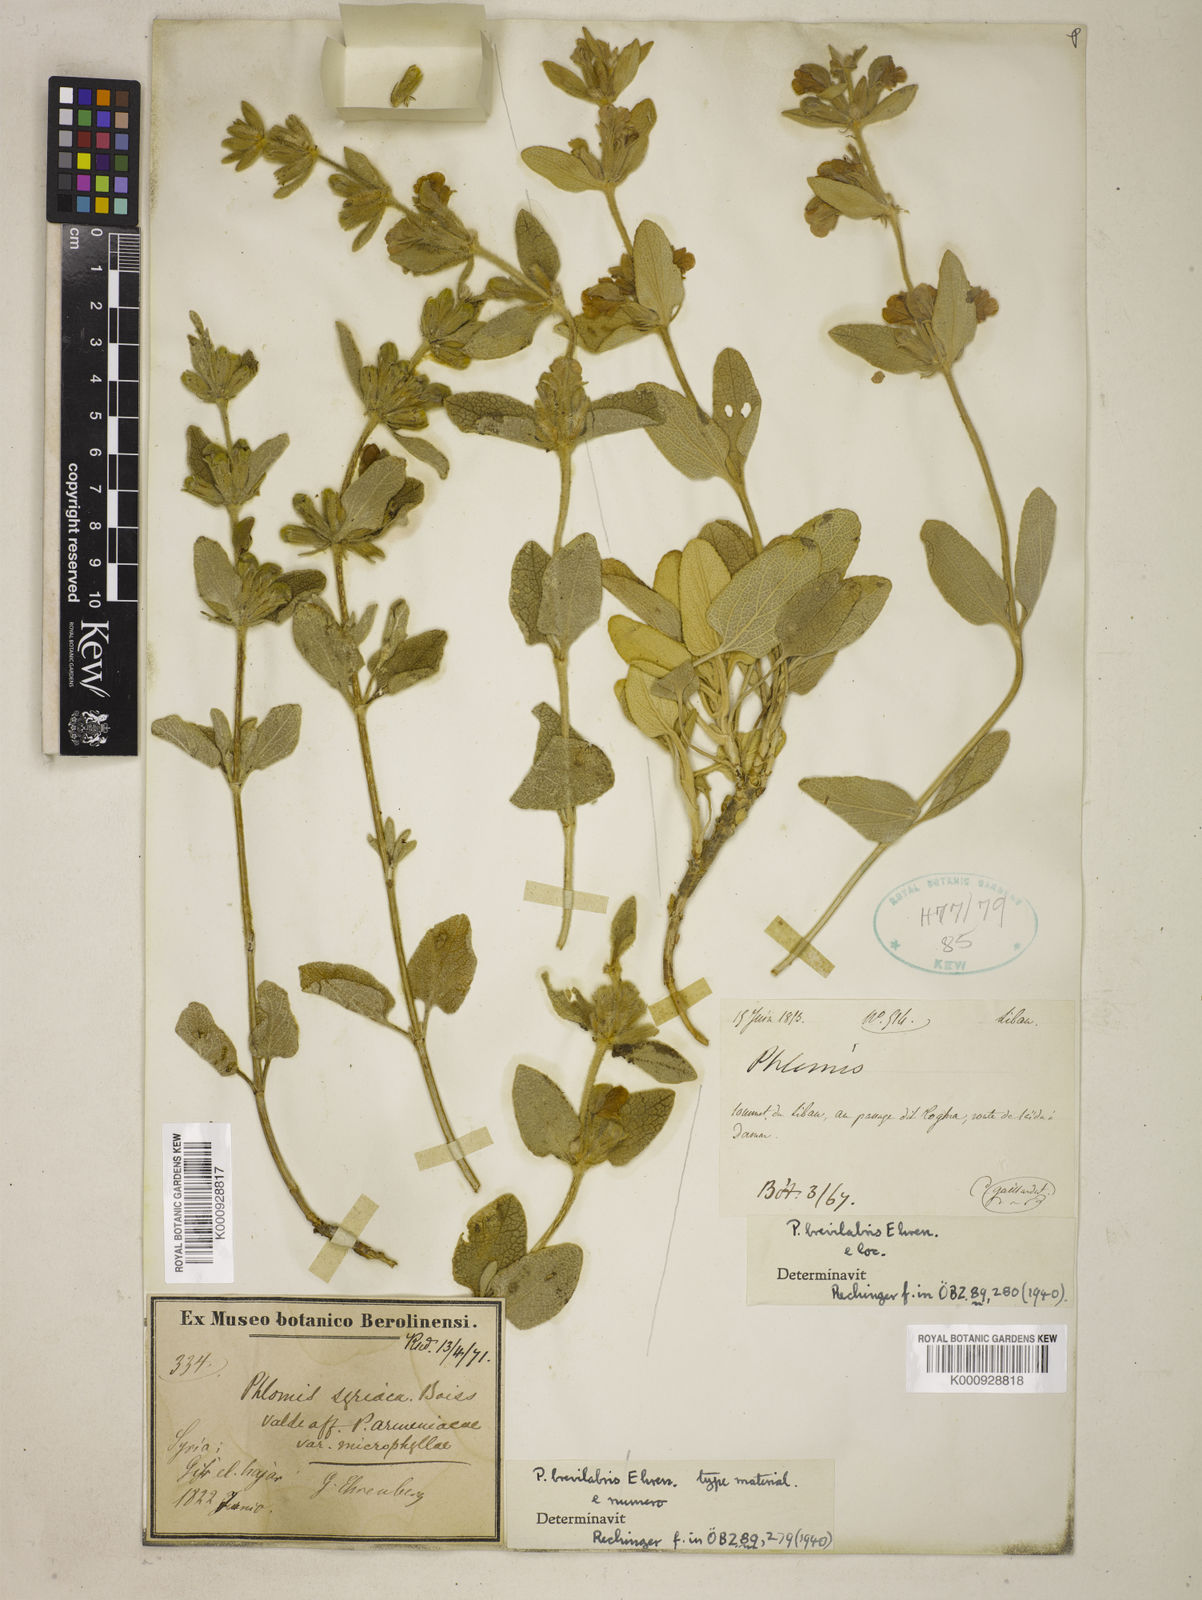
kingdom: Plantae
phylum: Tracheophyta
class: Magnoliopsida
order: Lamiales
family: Lamiaceae
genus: Phlomis
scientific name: Phlomis brevilabris
